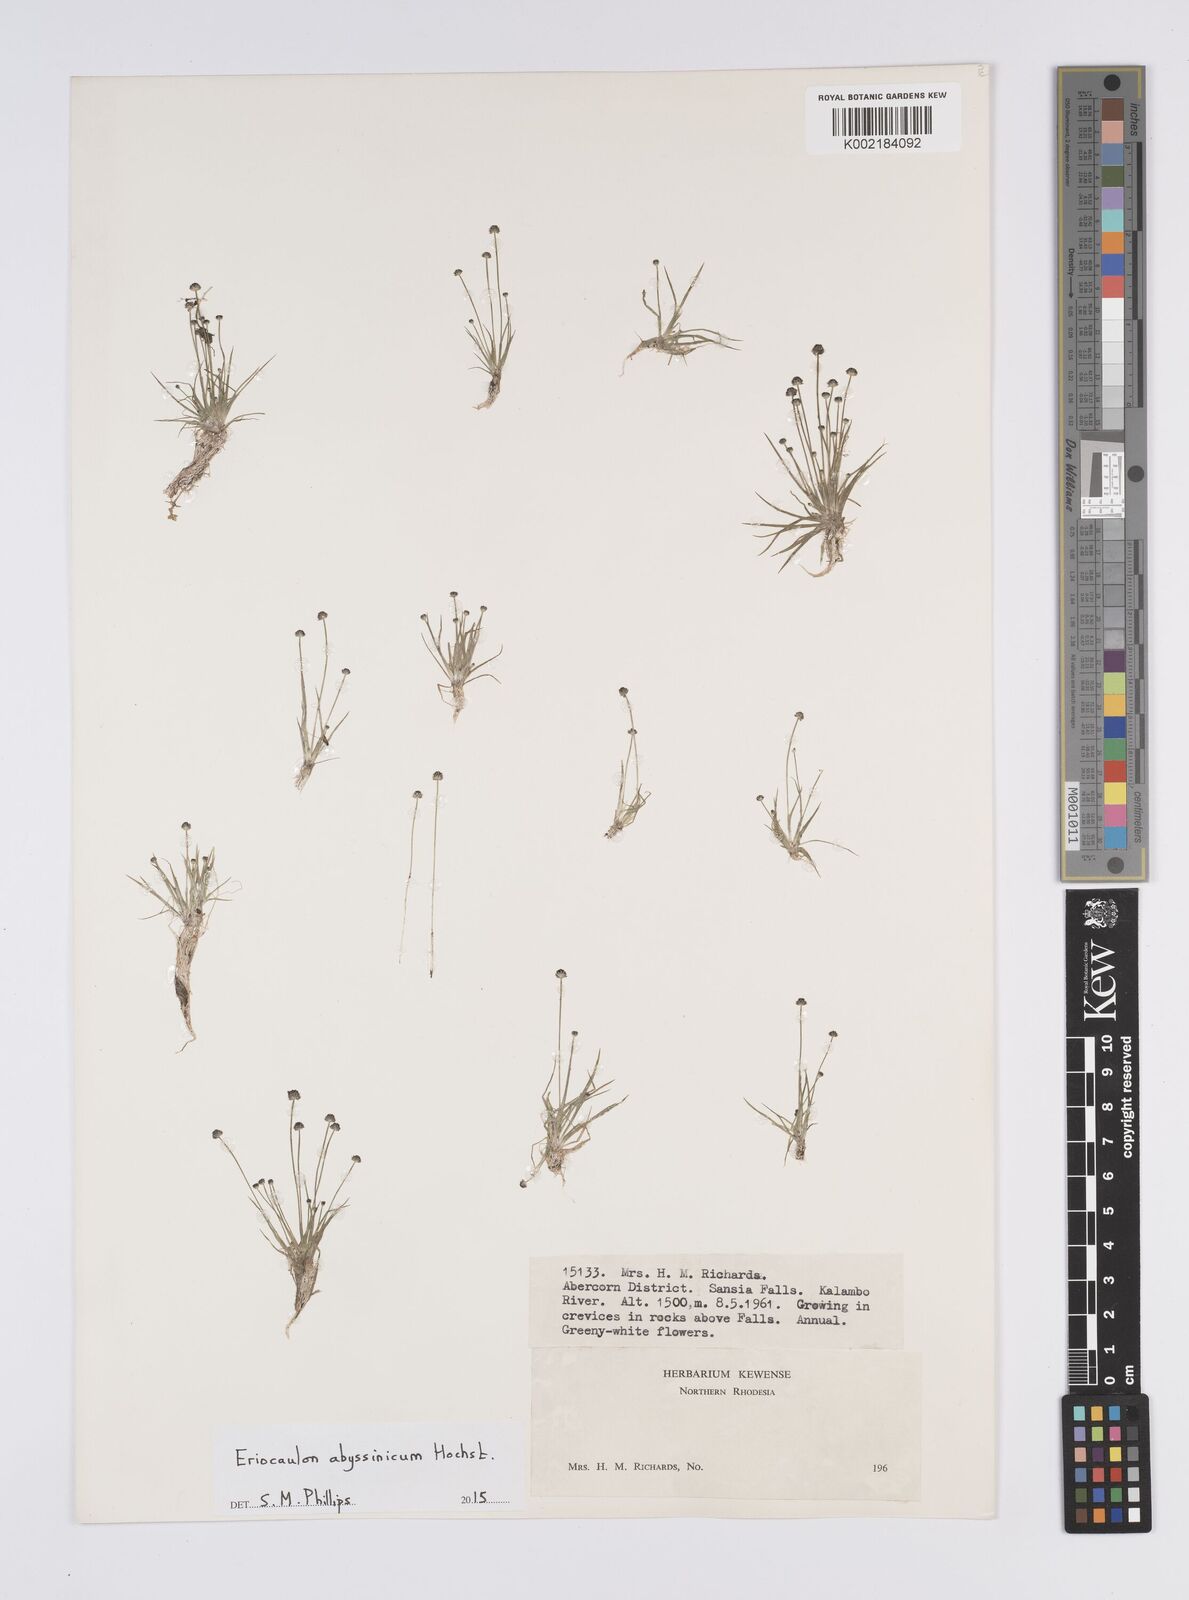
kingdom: Plantae
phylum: Tracheophyta
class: Liliopsida
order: Poales
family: Eriocaulaceae
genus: Eriocaulon
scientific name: Eriocaulon abyssinicum
